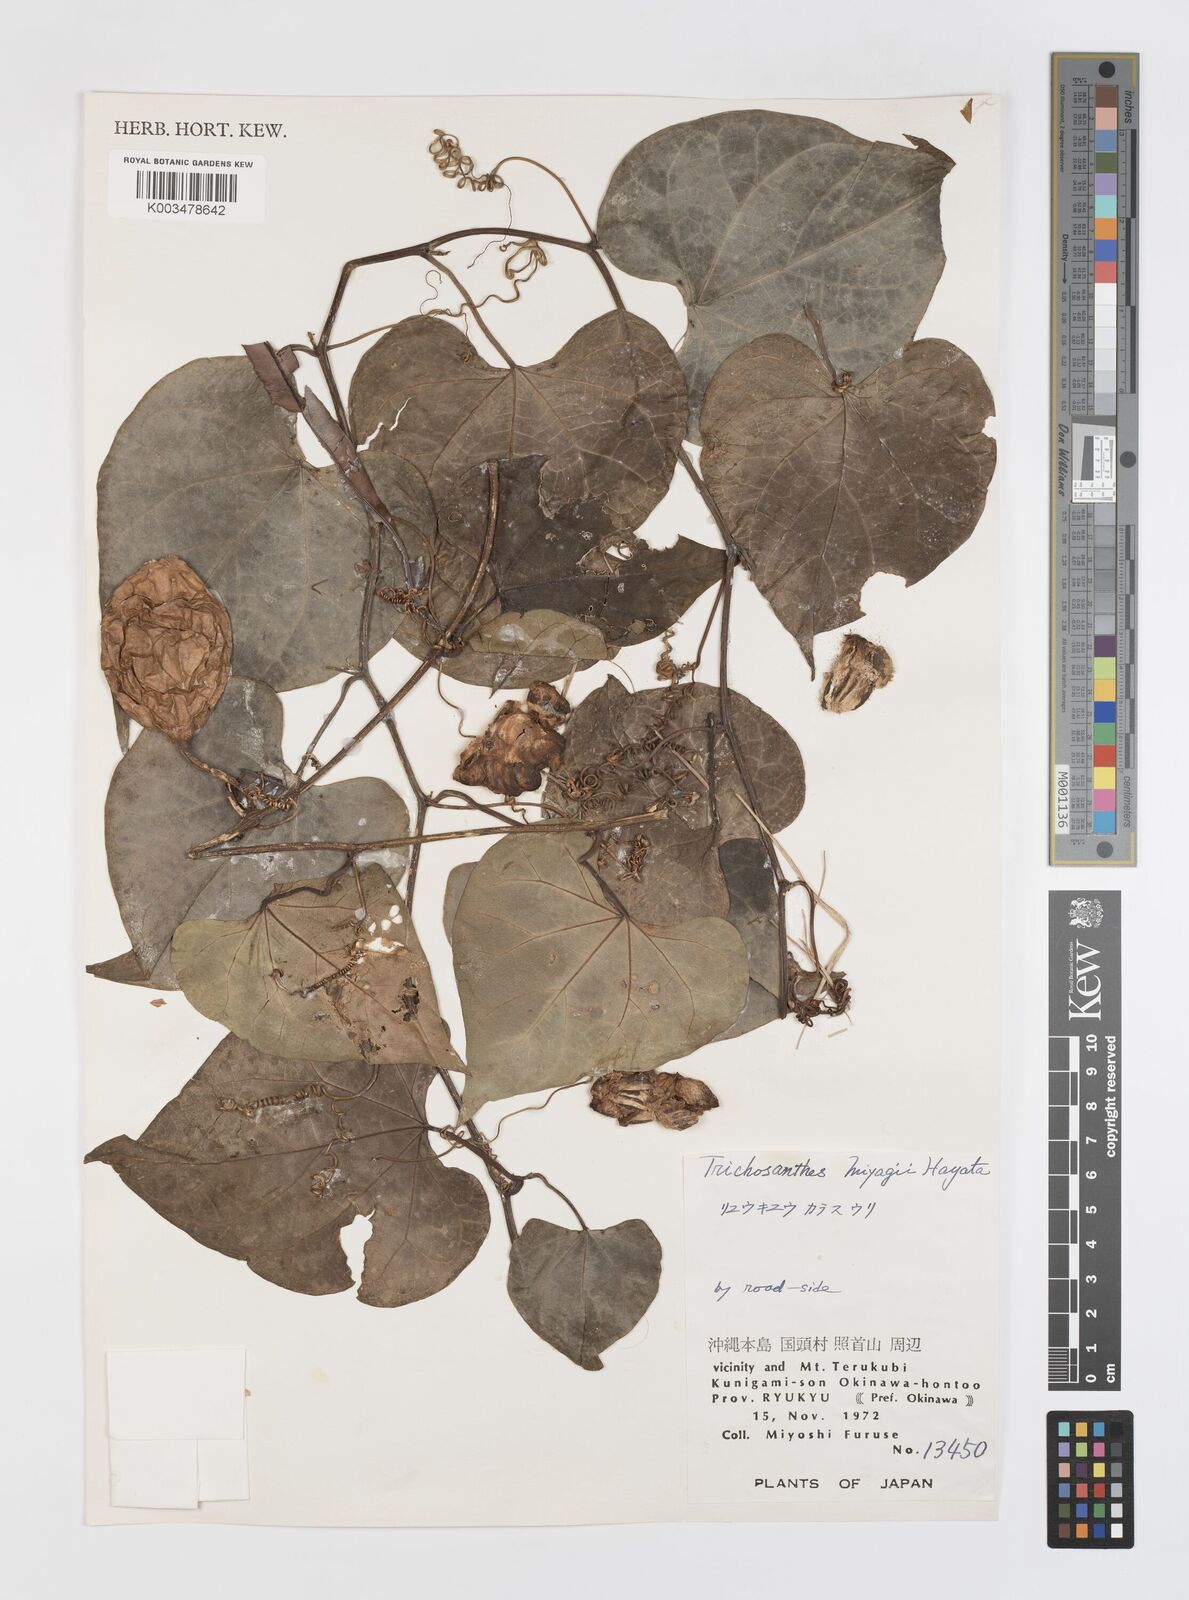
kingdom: Plantae
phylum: Tracheophyta
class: Magnoliopsida
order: Cucurbitales
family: Cucurbitaceae
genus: Trichosanthes
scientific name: Trichosanthes miyagii
